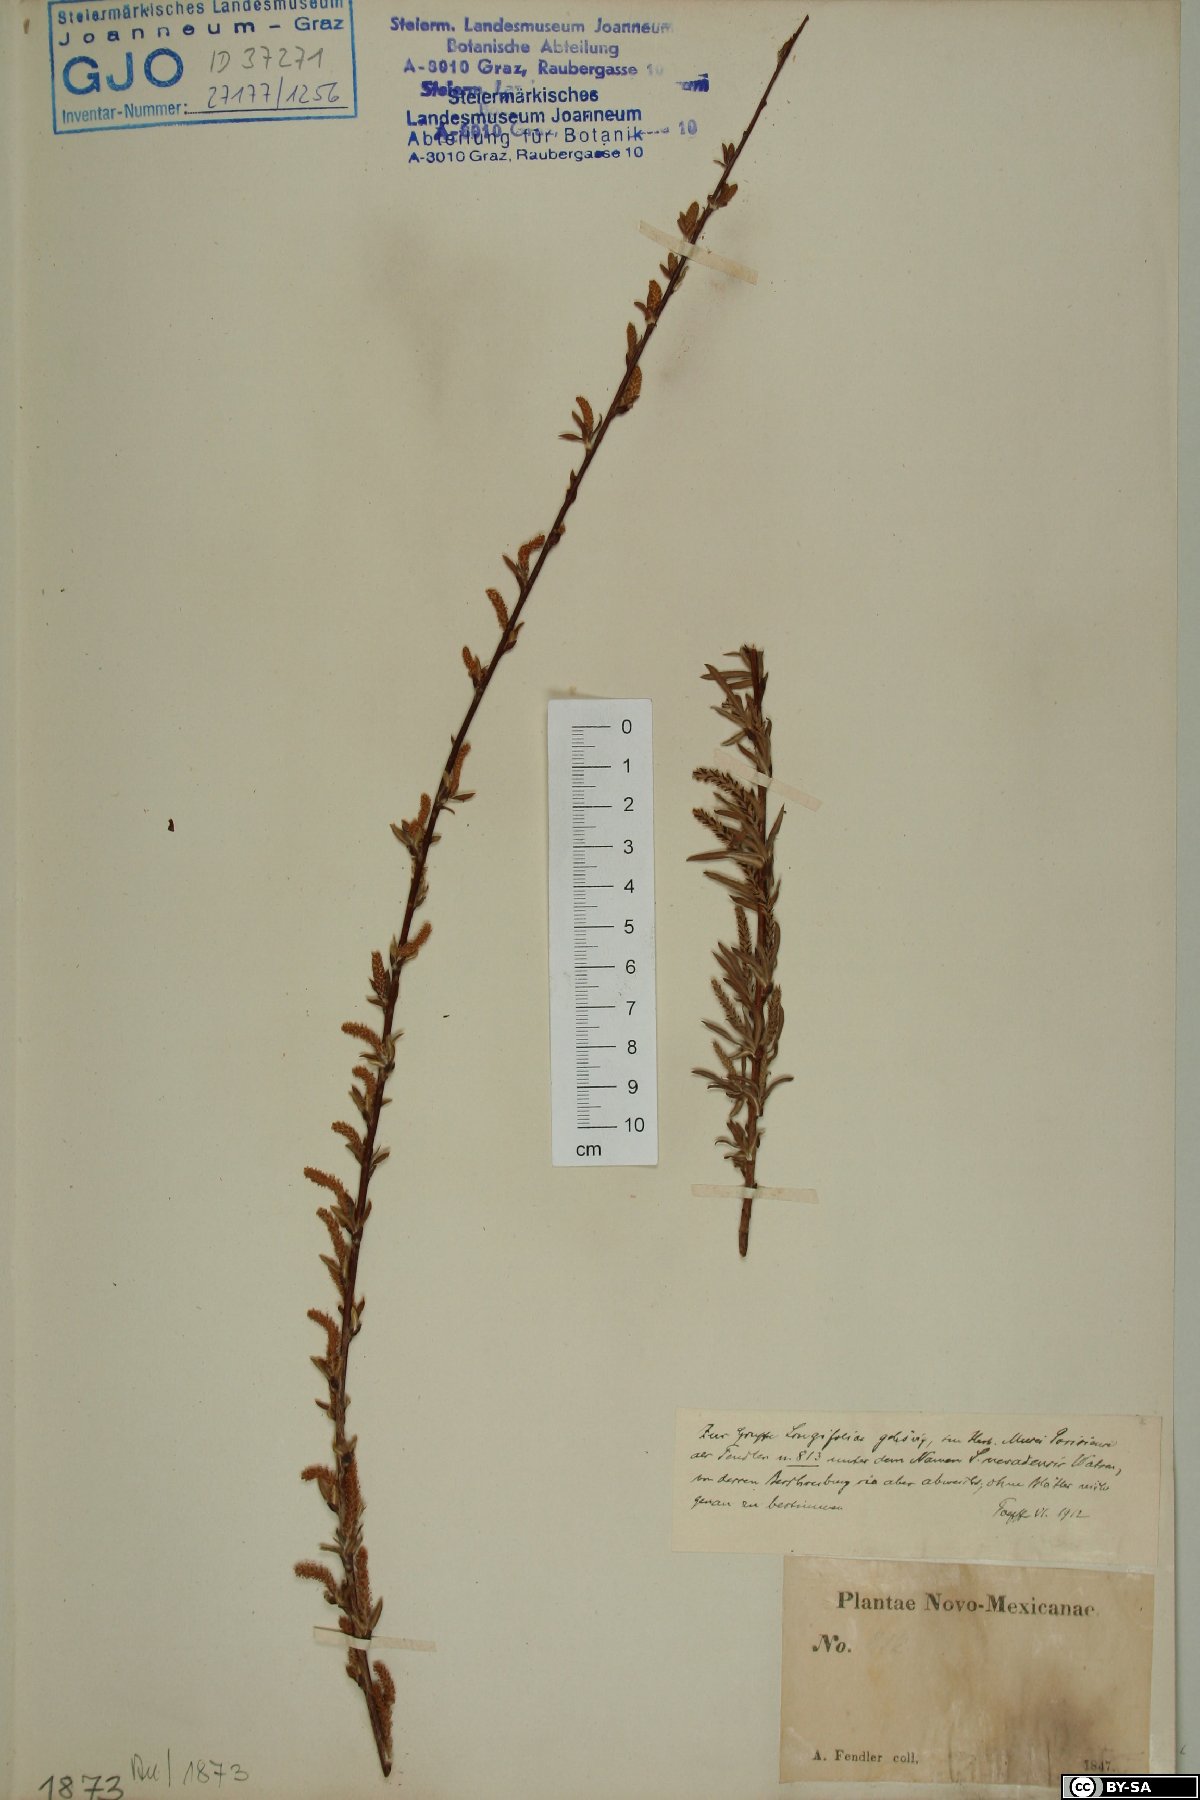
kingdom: Plantae
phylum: Tracheophyta
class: Magnoliopsida
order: Malpighiales
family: Salicaceae
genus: Salix
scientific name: Salix
